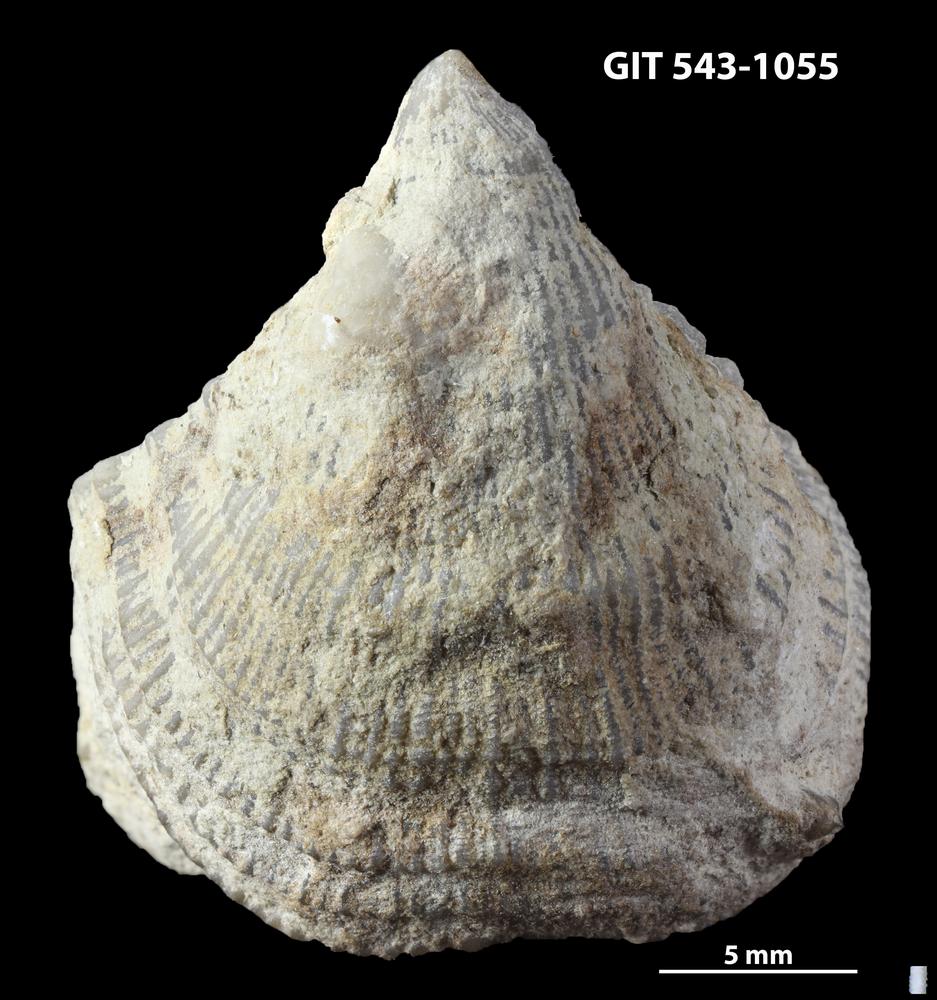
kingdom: Animalia
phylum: Brachiopoda
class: Rhynchonellata
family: Clitambonitidae
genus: Vellamo
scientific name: Vellamo
